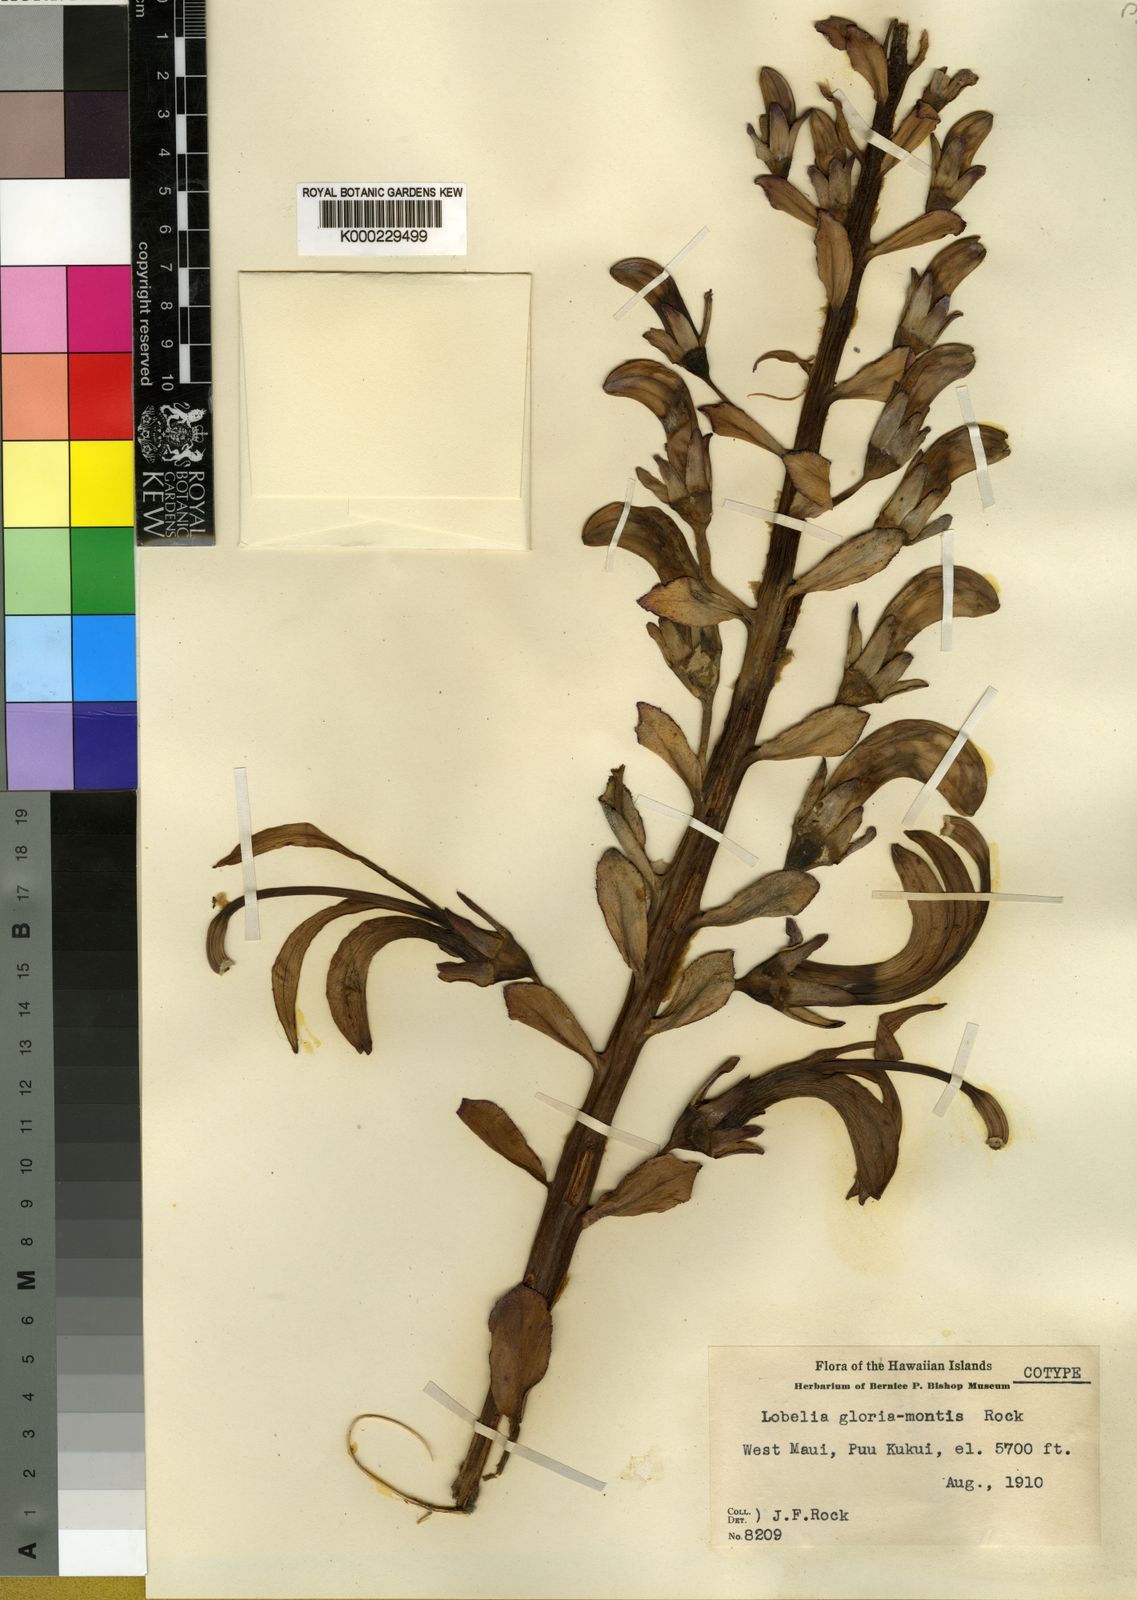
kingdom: Plantae
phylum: Tracheophyta
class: Magnoliopsida
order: Asterales
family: Campanulaceae
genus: Lobelia
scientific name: Lobelia gloria-montis
